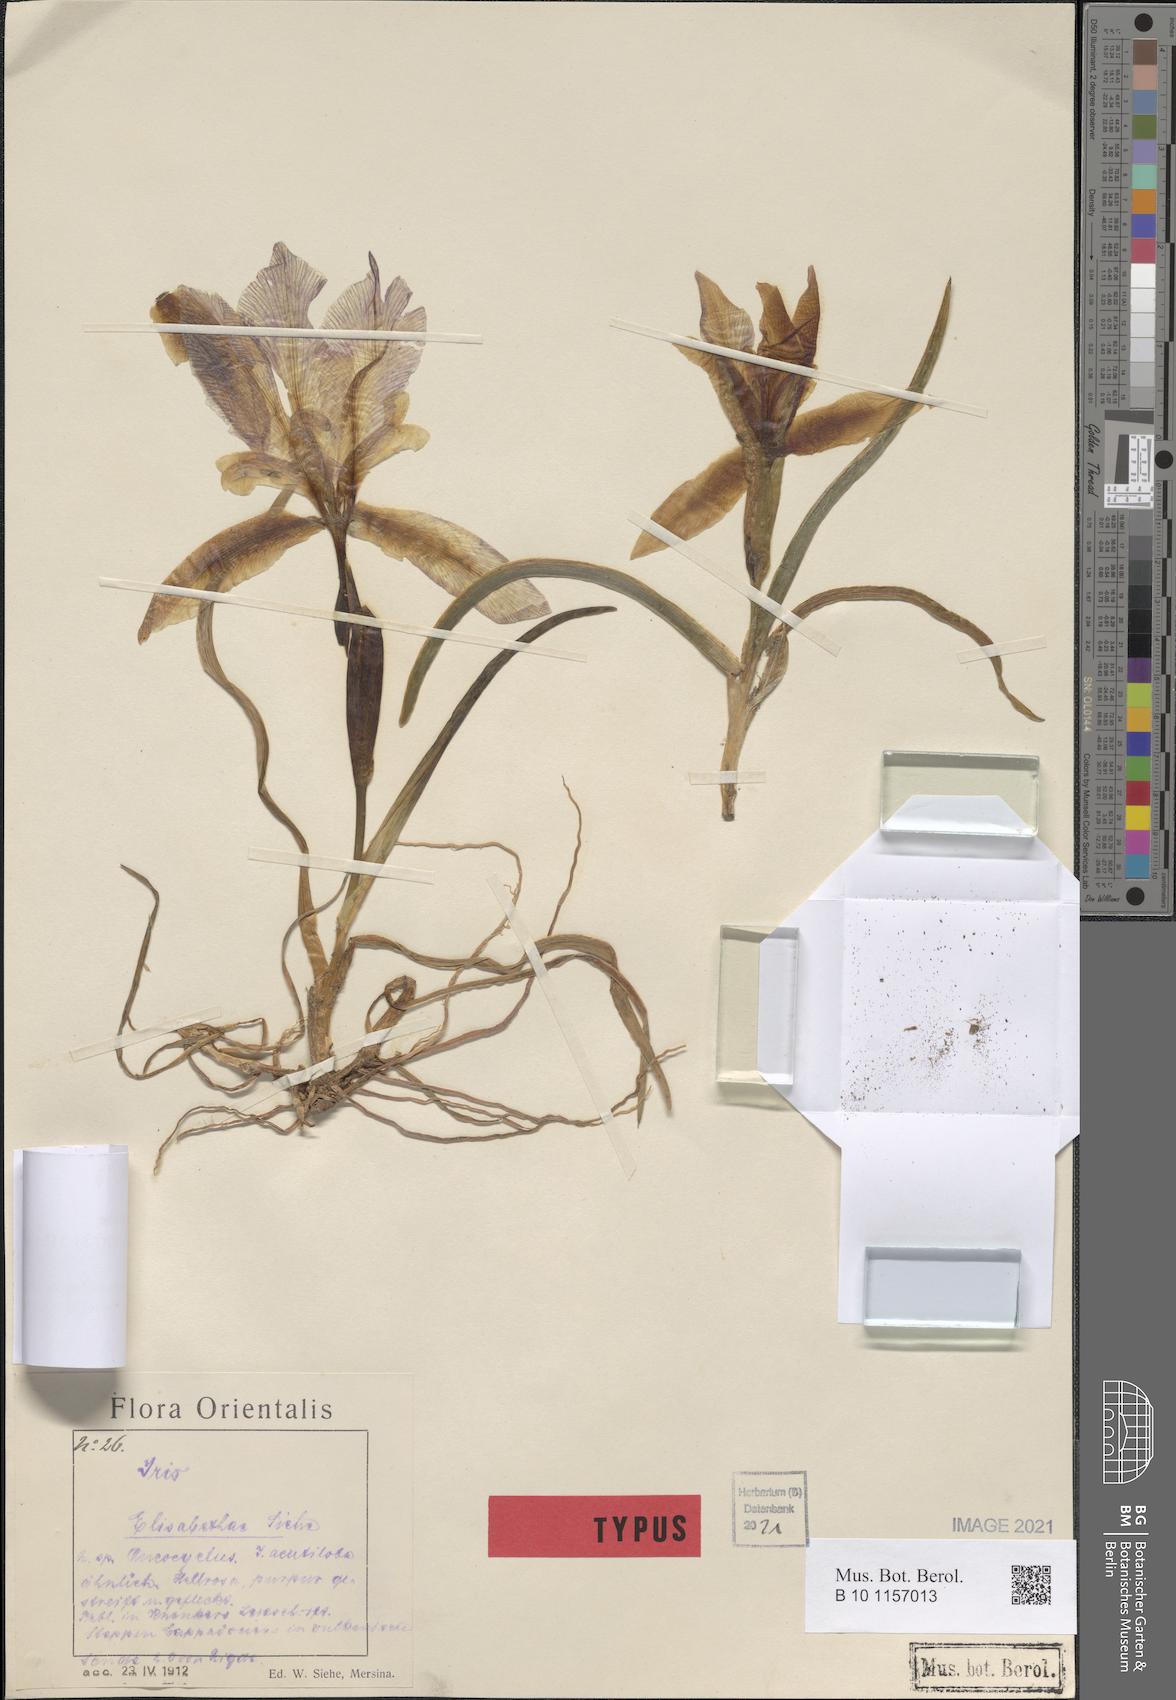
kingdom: Plantae
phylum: Tracheophyta
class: Liliopsida
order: Asparagales
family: Iridaceae
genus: Iris
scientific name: Iris sprengeri
